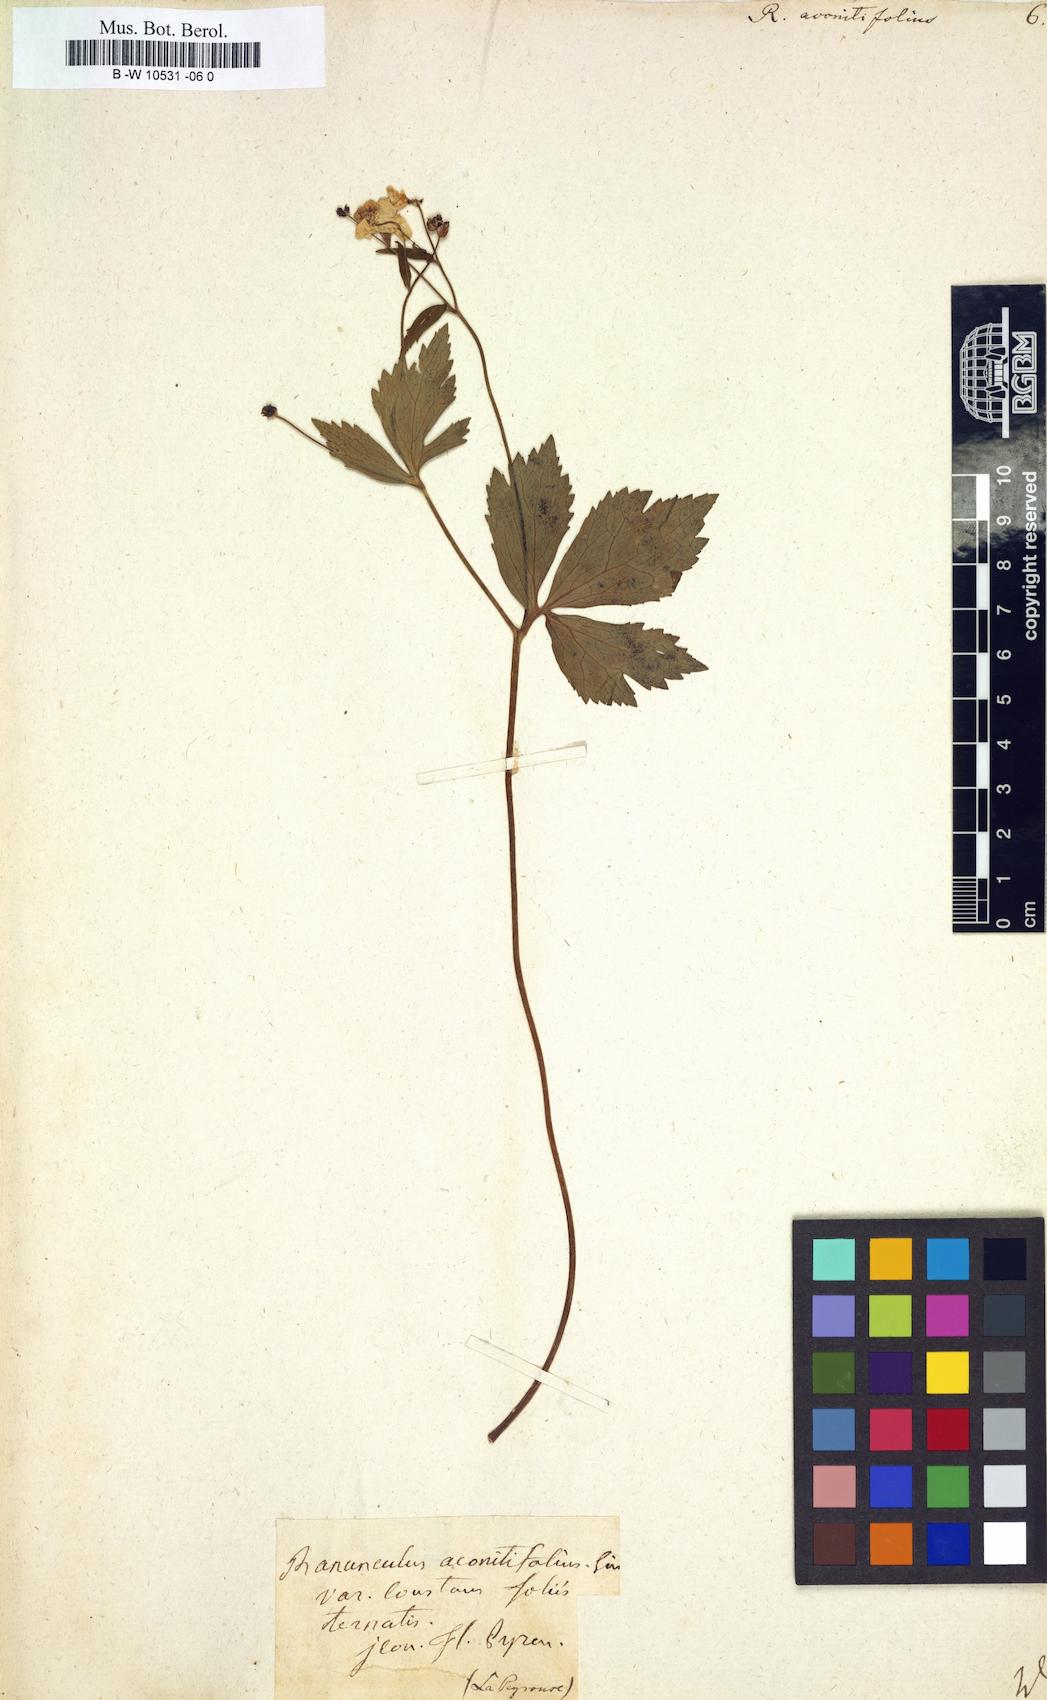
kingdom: Plantae
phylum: Tracheophyta
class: Magnoliopsida
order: Ranunculales
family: Ranunculaceae
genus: Ranunculus
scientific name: Ranunculus aconitifolius
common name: Aconite-leaved buttercup
